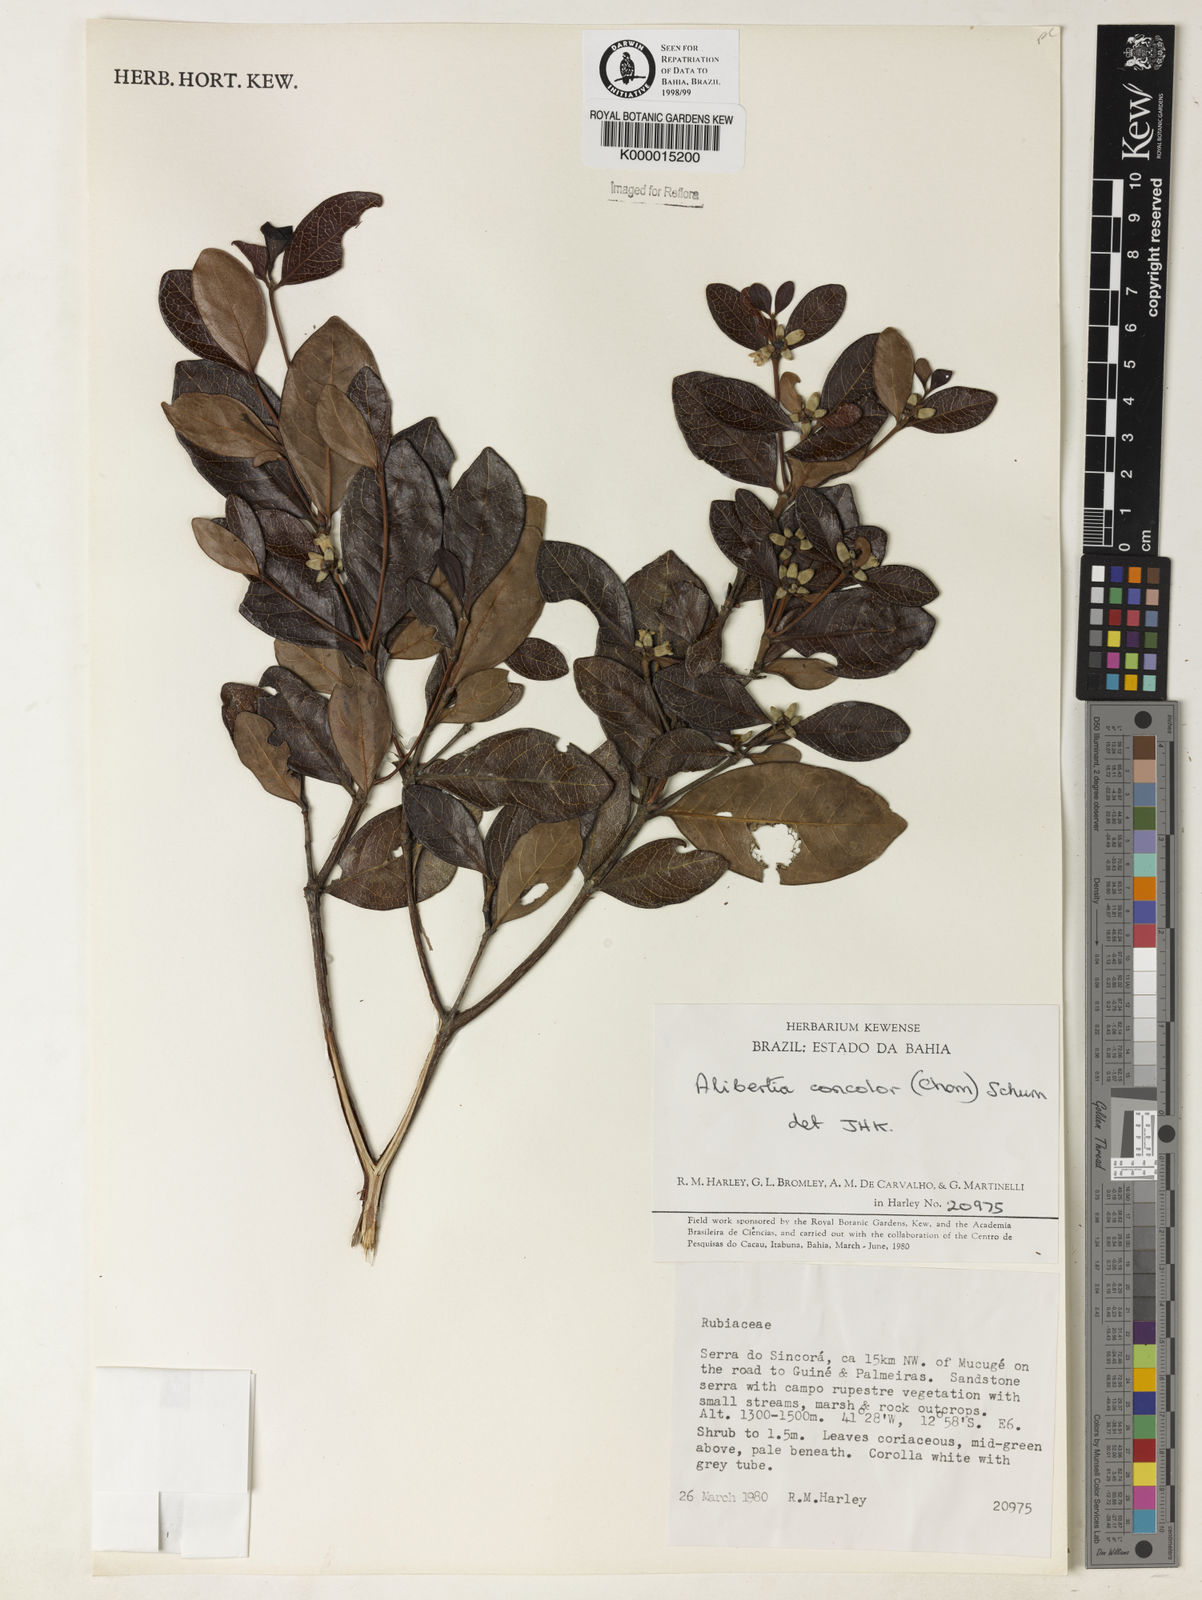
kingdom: Plantae
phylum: Tracheophyta
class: Magnoliopsida
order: Gentianales
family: Rubiaceae
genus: Cordiera
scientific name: Cordiera concolor
